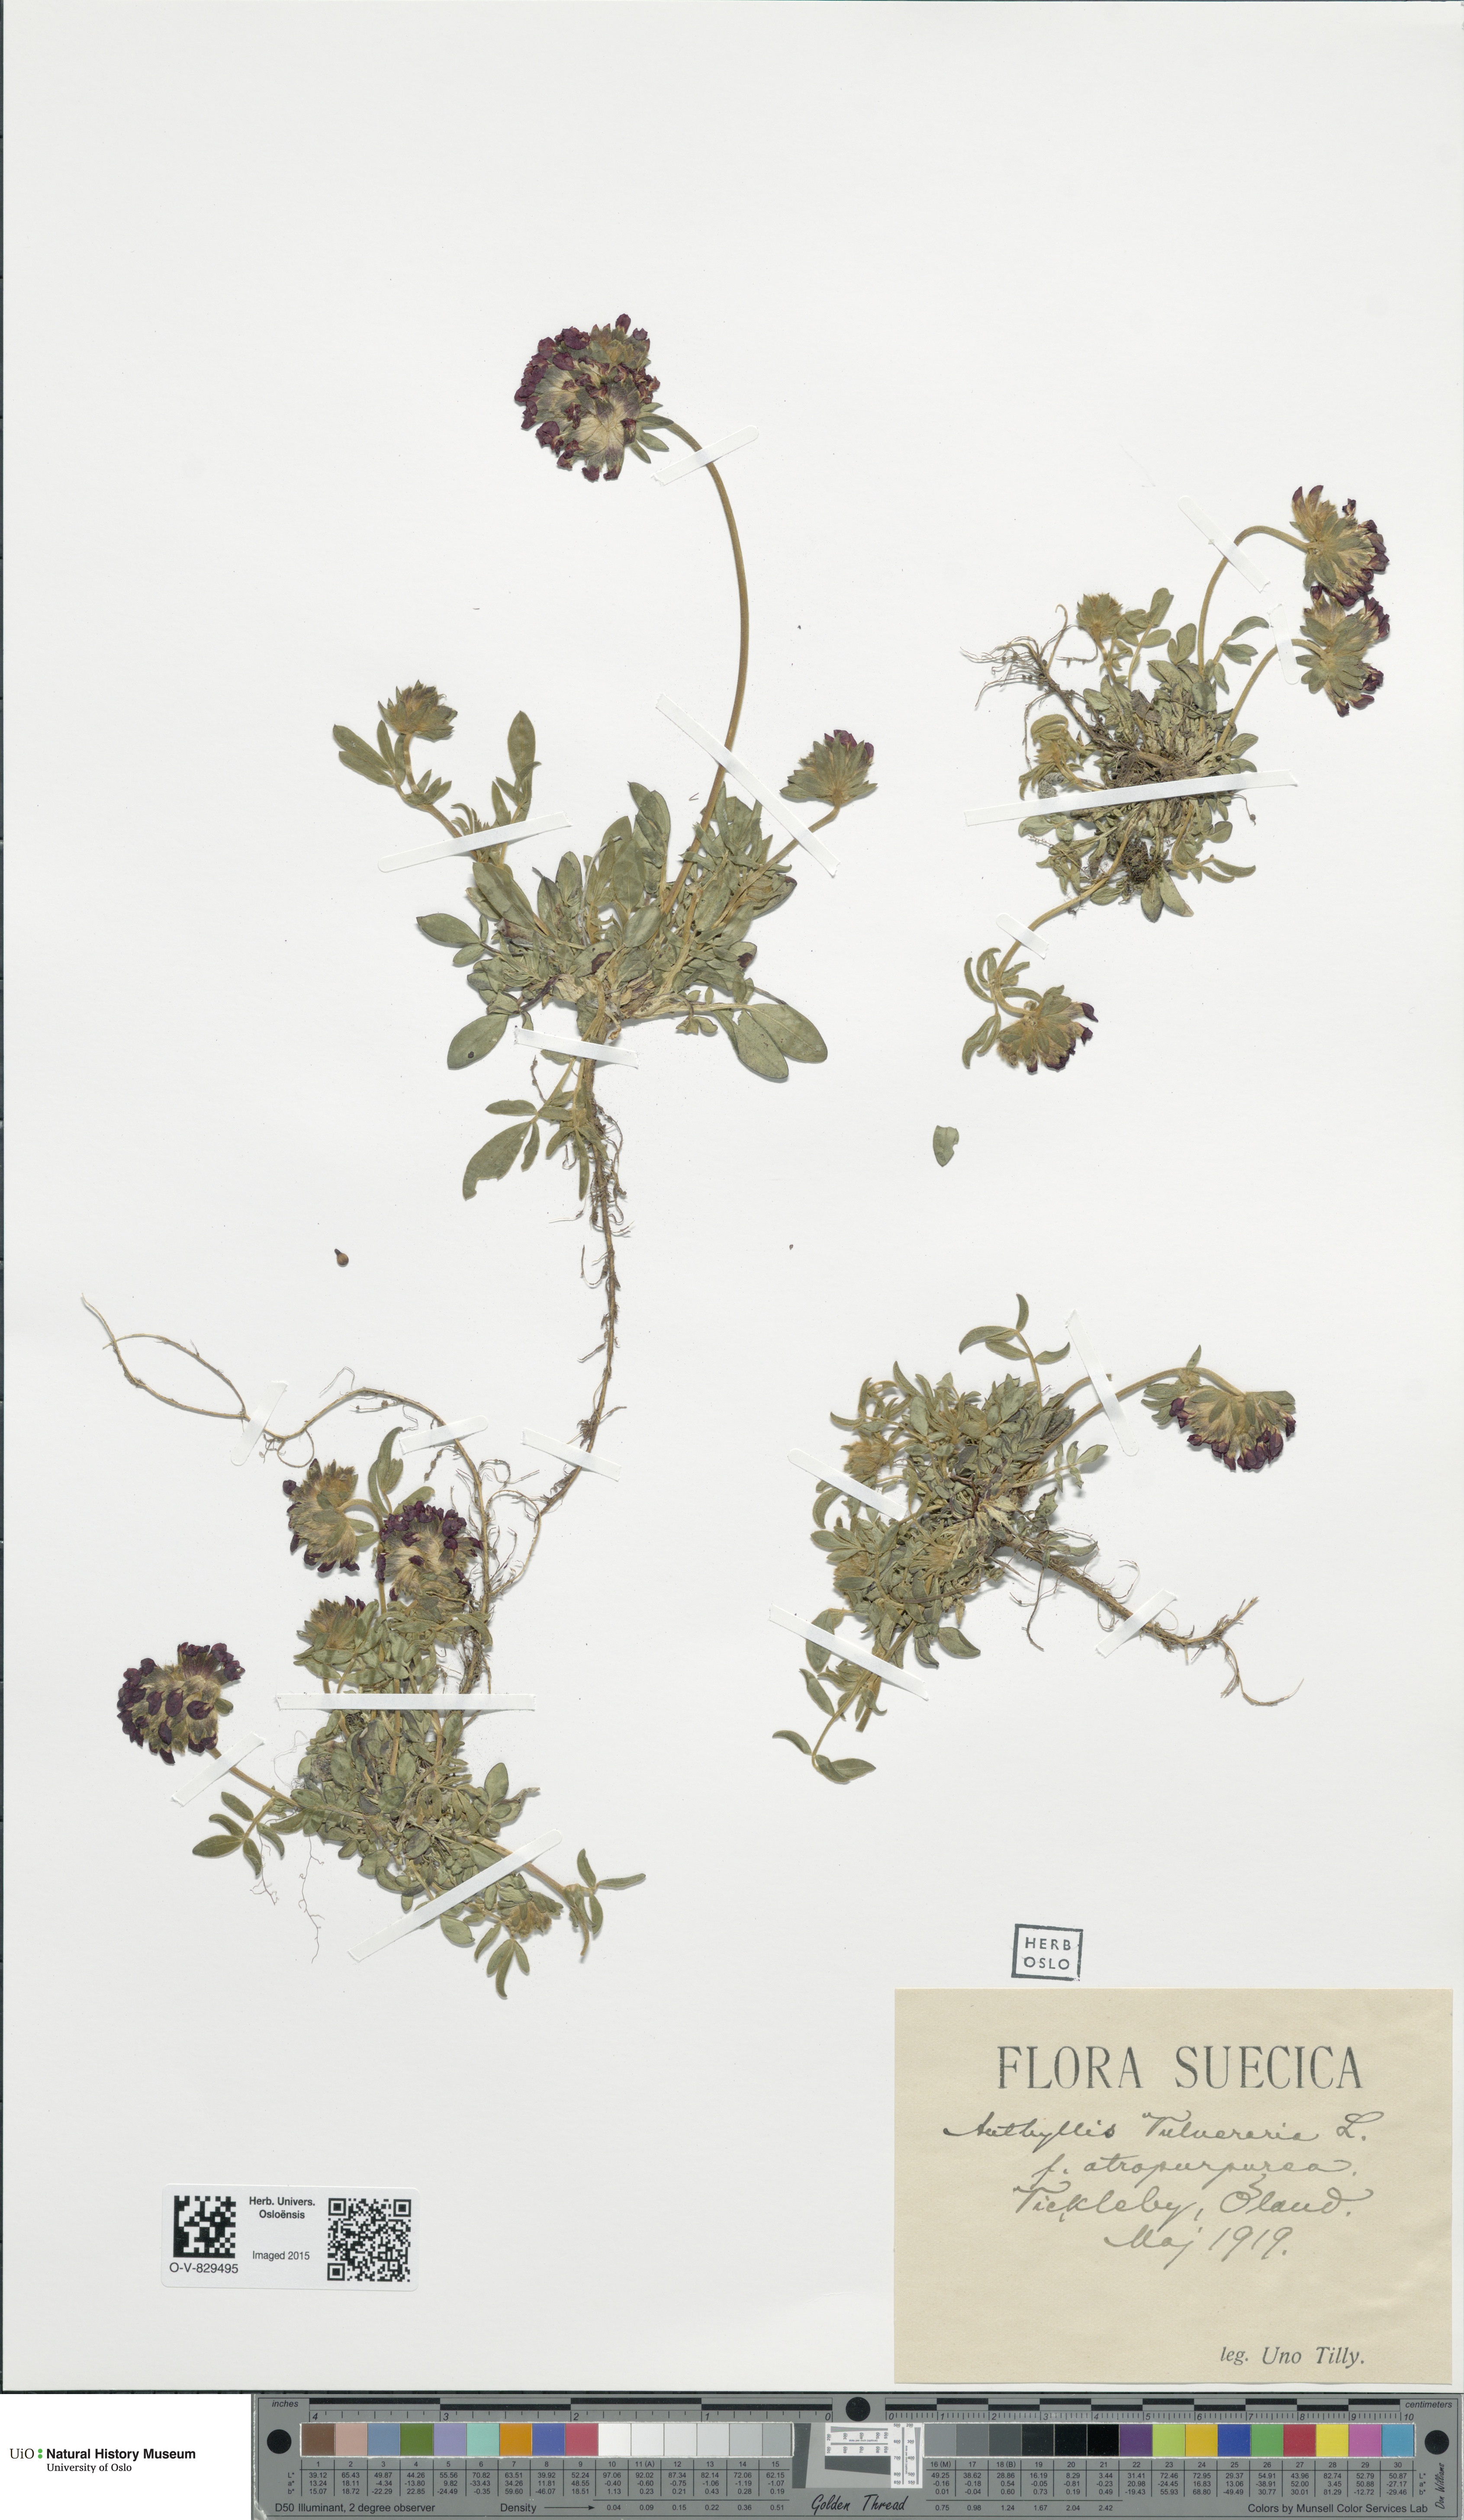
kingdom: Plantae
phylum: Tracheophyta
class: Magnoliopsida
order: Fabales
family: Fabaceae
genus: Anthyllis
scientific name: Anthyllis vulneraria
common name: Kidney vetch
